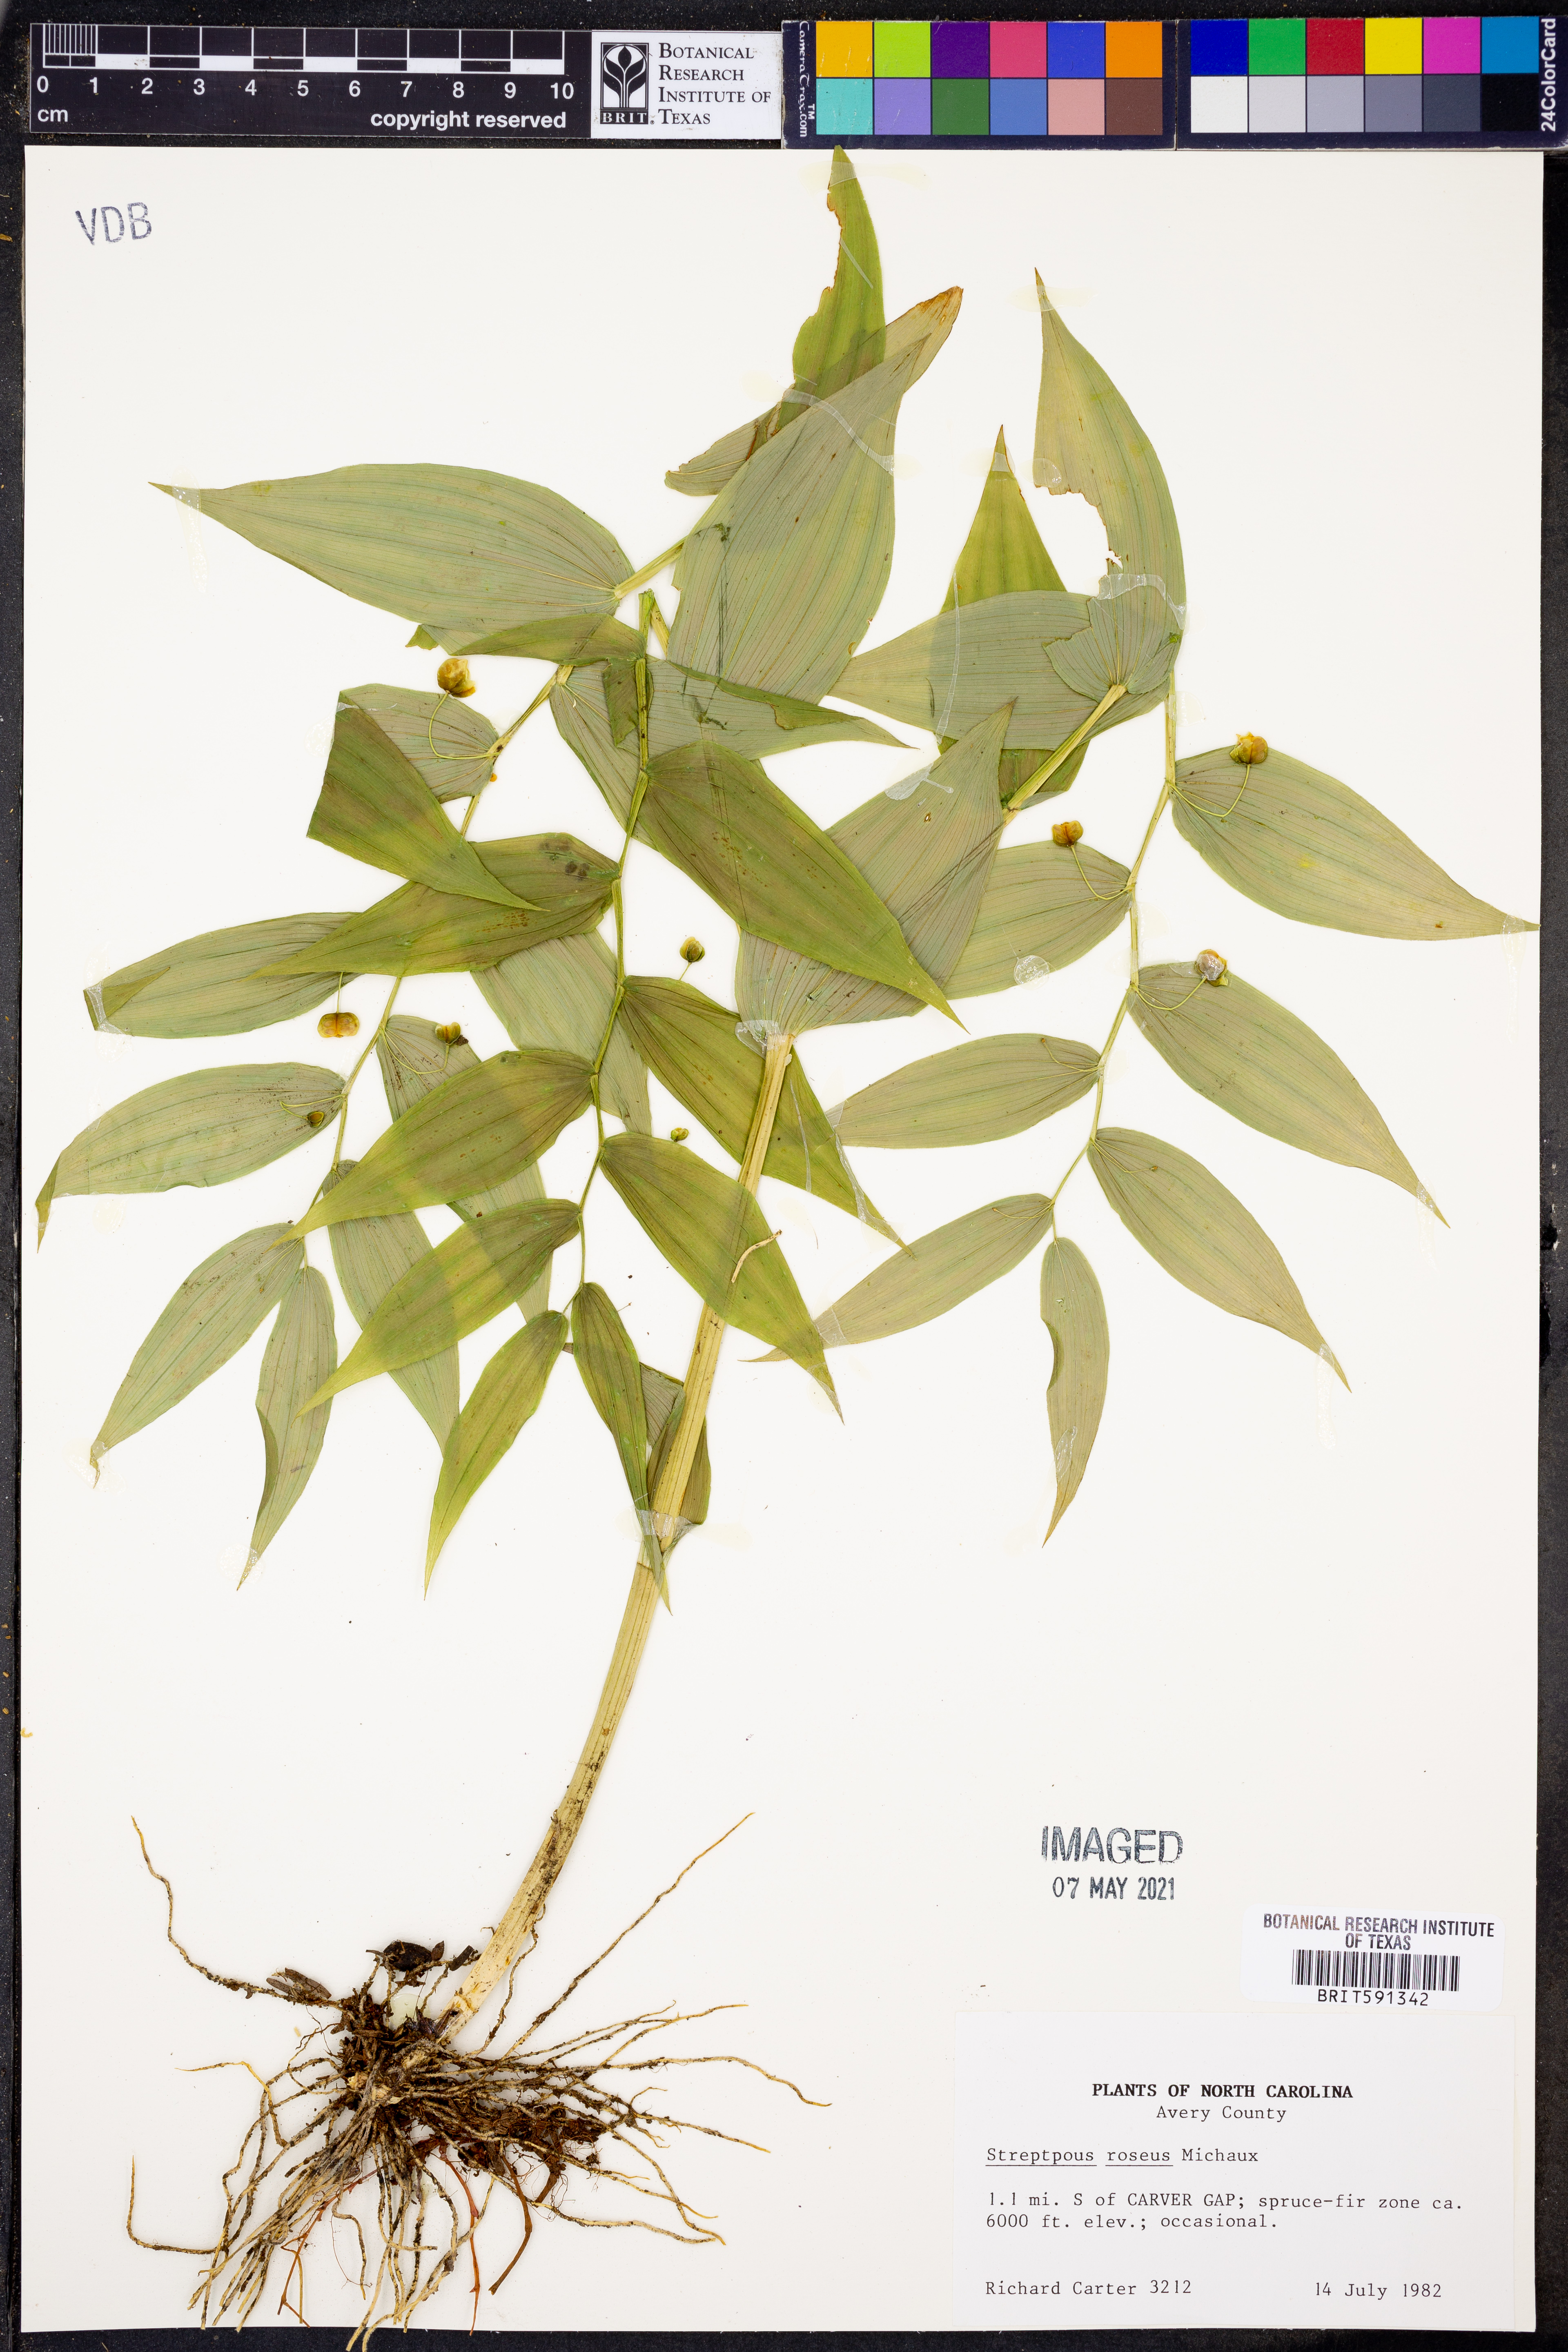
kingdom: Plantae
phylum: Tracheophyta
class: Liliopsida
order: Liliales
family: Liliaceae
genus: Streptopus
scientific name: Streptopus lanceolatus
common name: Rose mandarin
